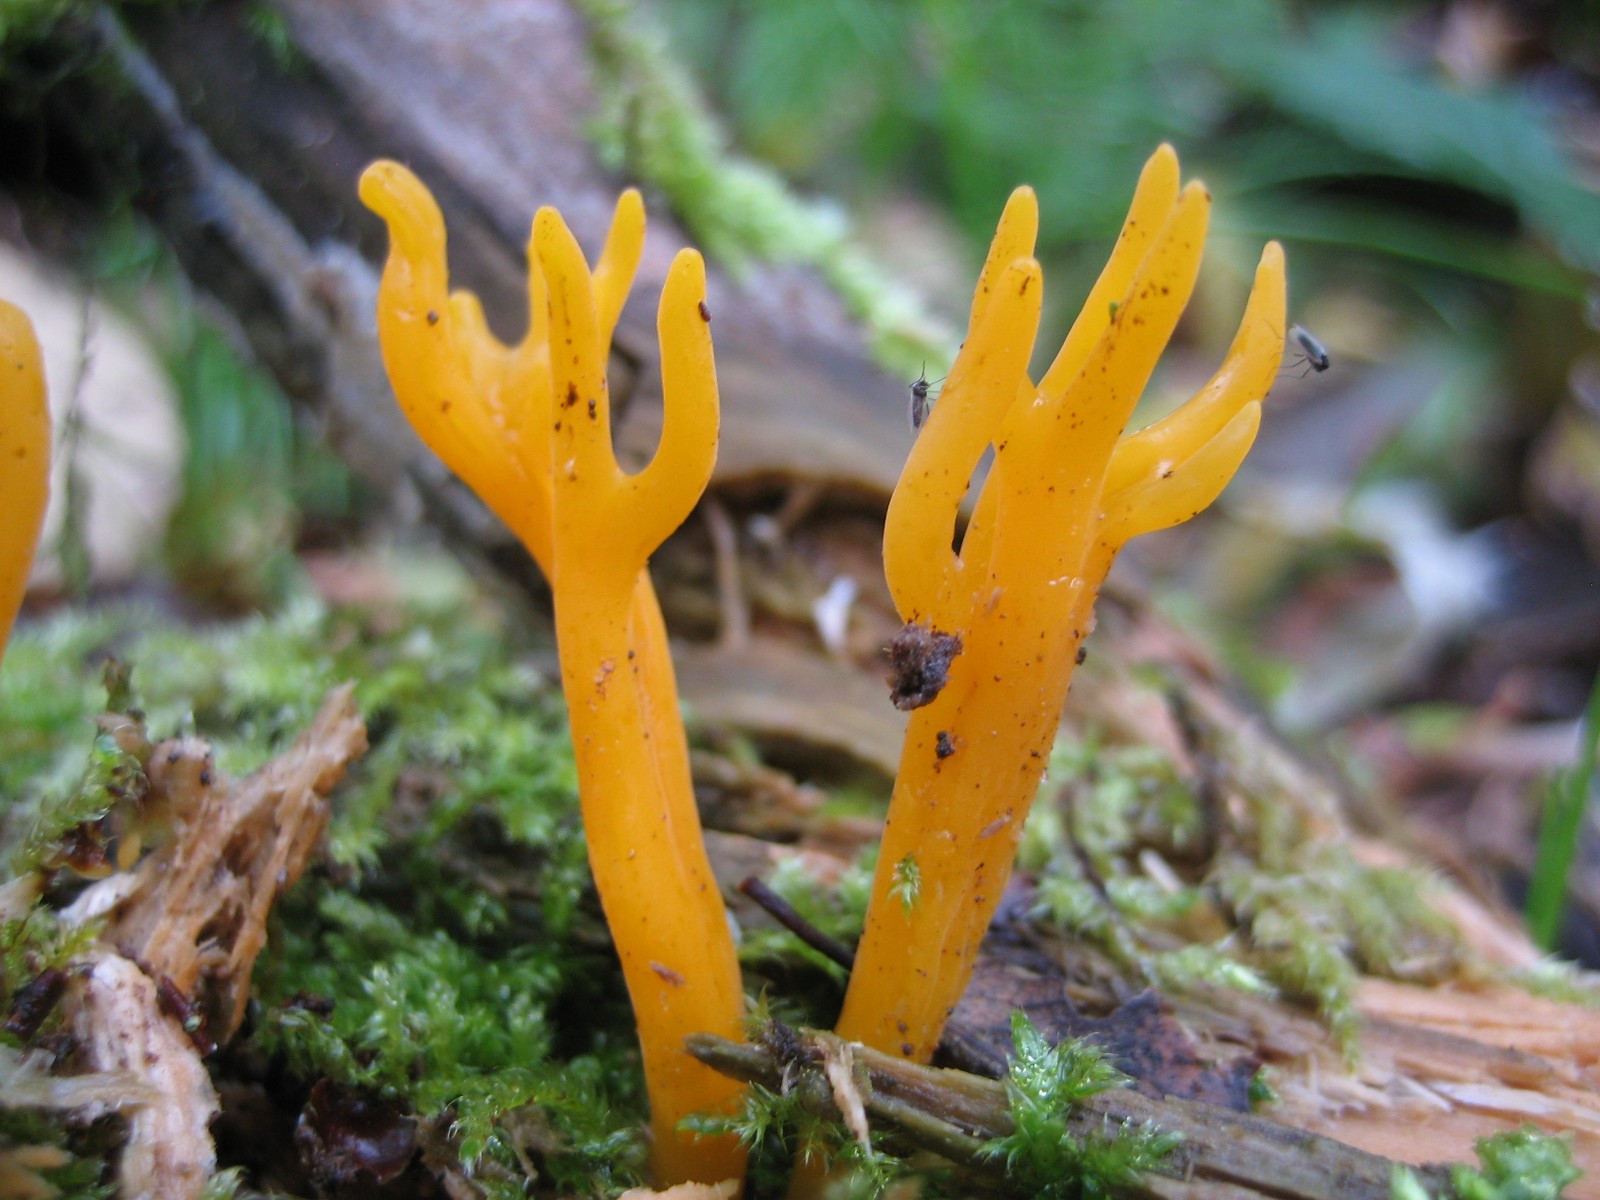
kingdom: Fungi
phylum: Basidiomycota
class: Dacrymycetes
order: Dacrymycetales
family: Dacrymycetaceae
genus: Calocera
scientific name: Calocera viscosa
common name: almindelig guldgaffel
